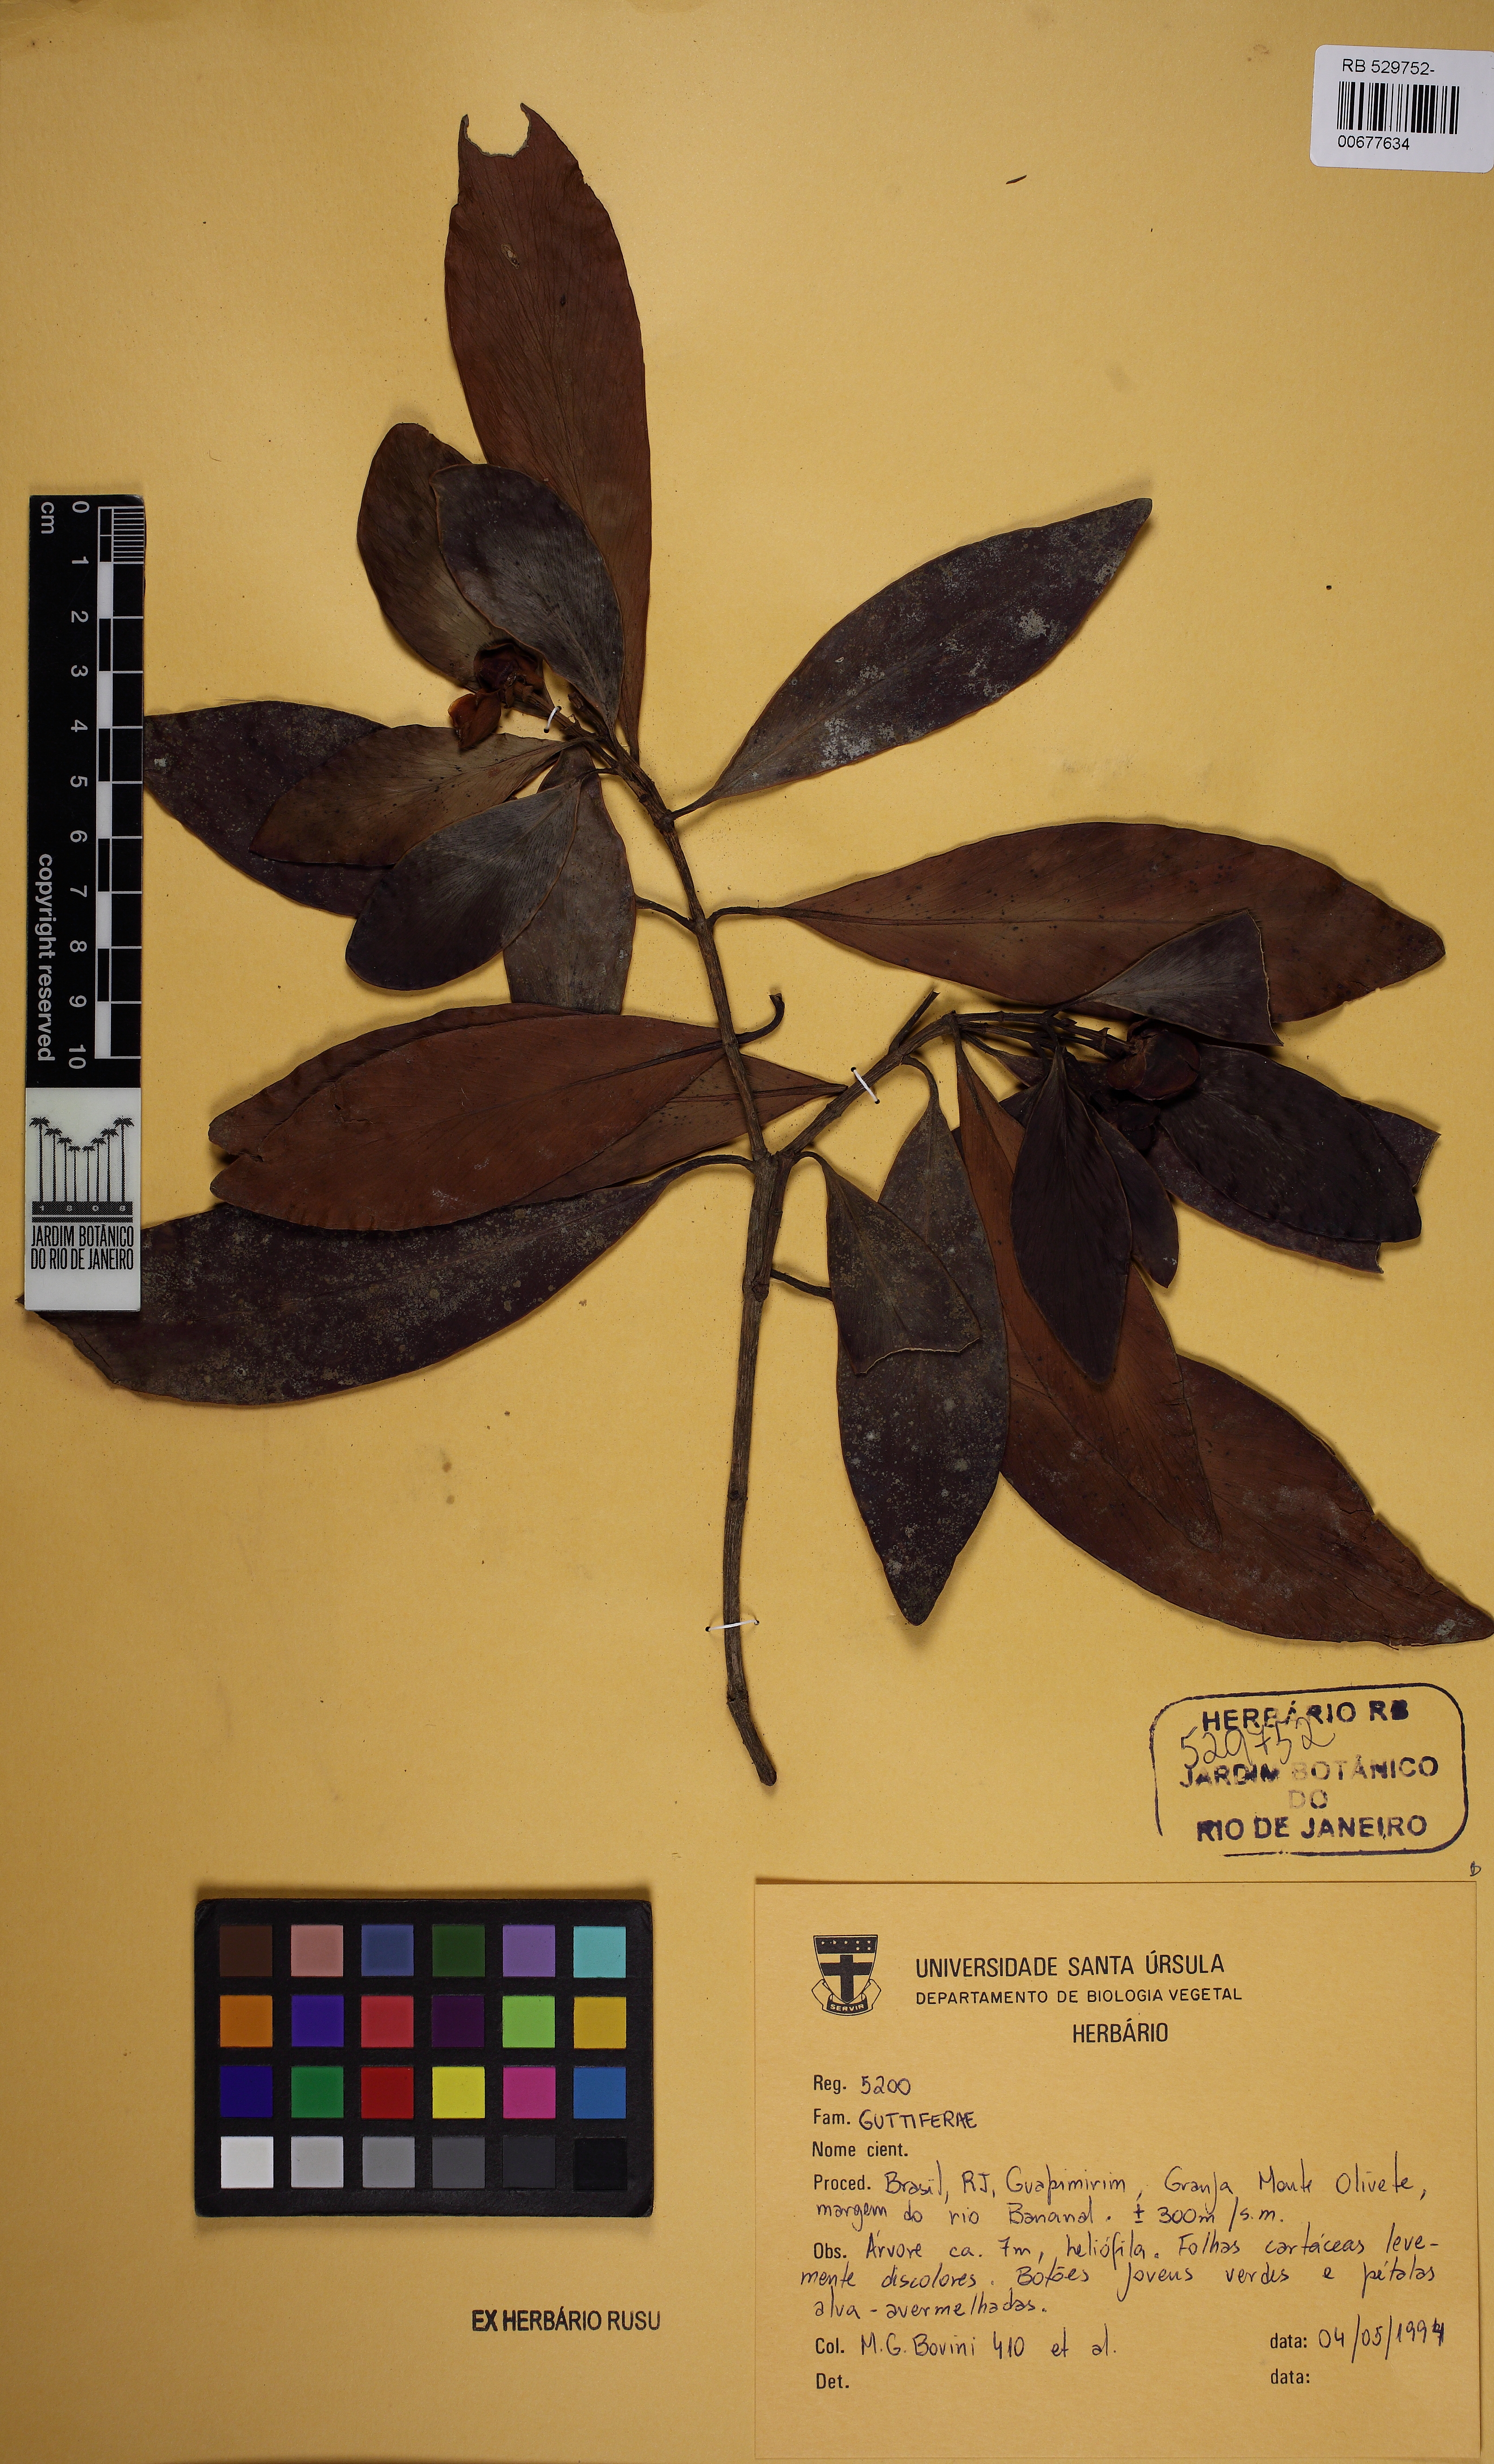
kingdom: Plantae
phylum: Tracheophyta
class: Magnoliopsida
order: Malpighiales
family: Clusiaceae
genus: Clusia
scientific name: Clusia lanceolata
